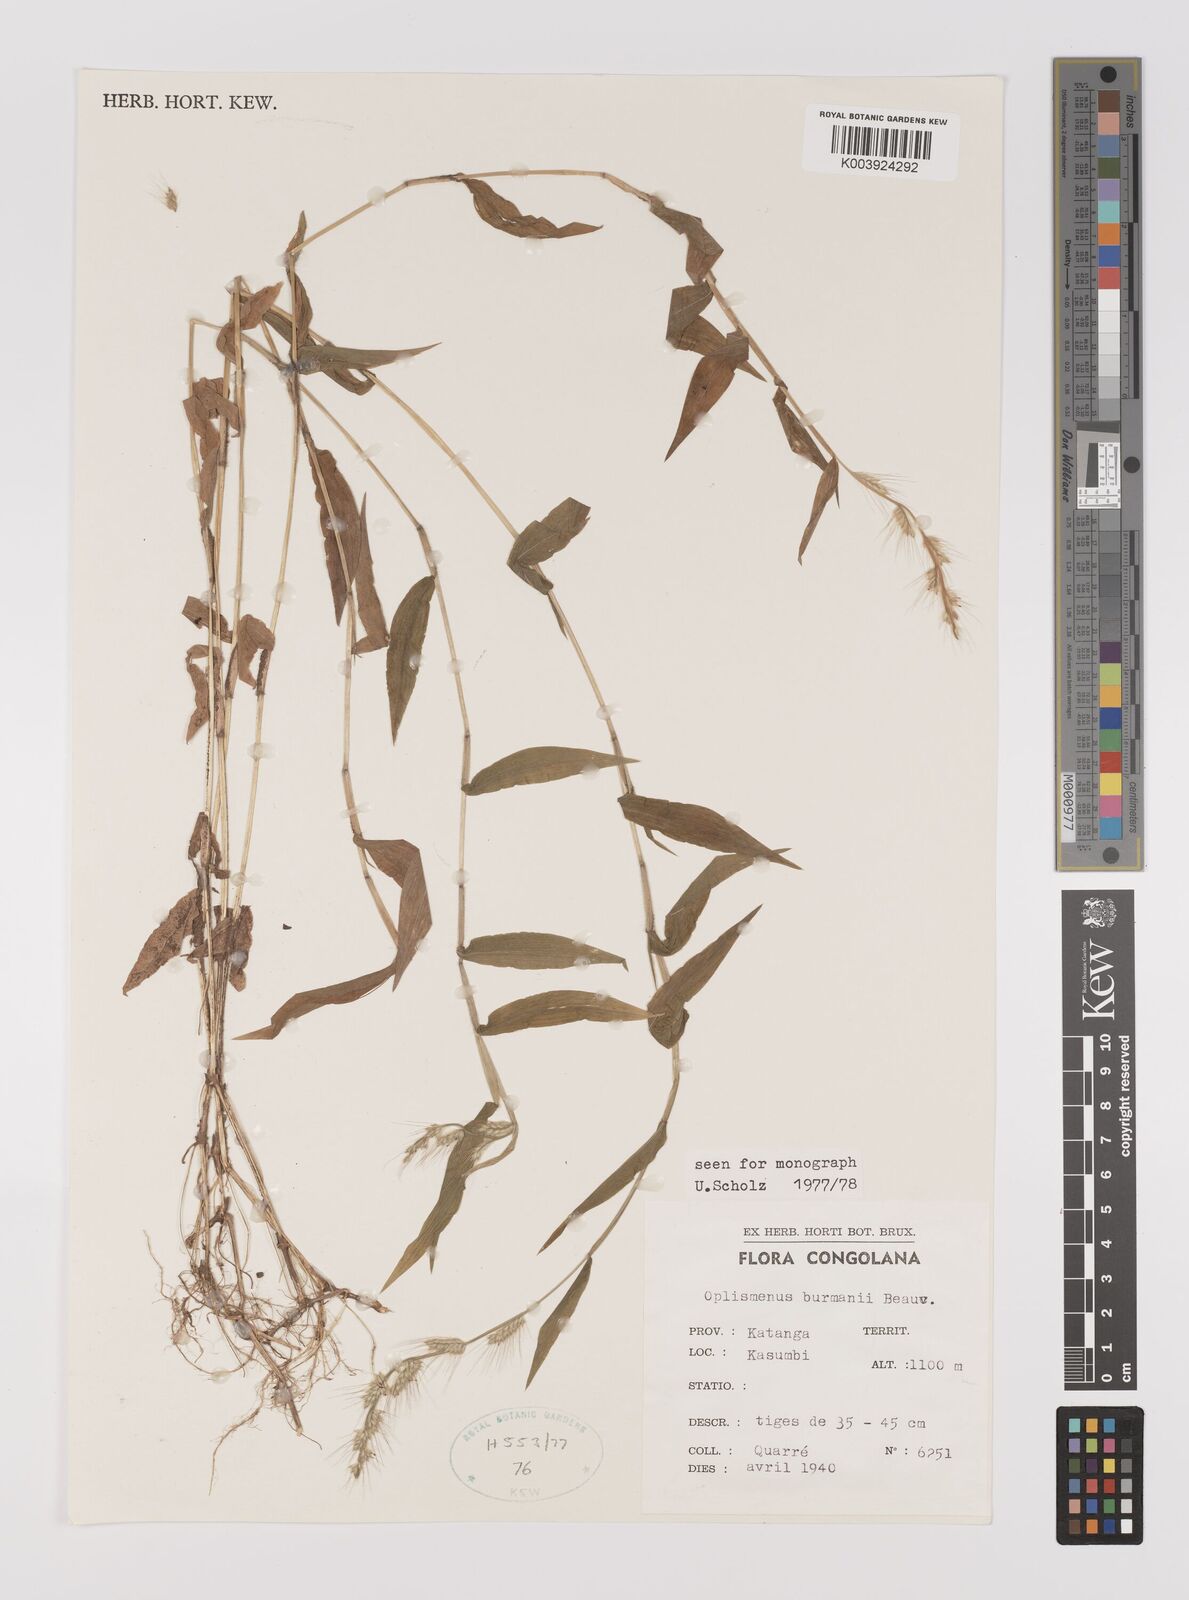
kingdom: Plantae
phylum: Tracheophyta
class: Liliopsida
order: Poales
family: Poaceae
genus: Oplismenus
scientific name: Oplismenus burmanni
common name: Burmann's basketgrass
